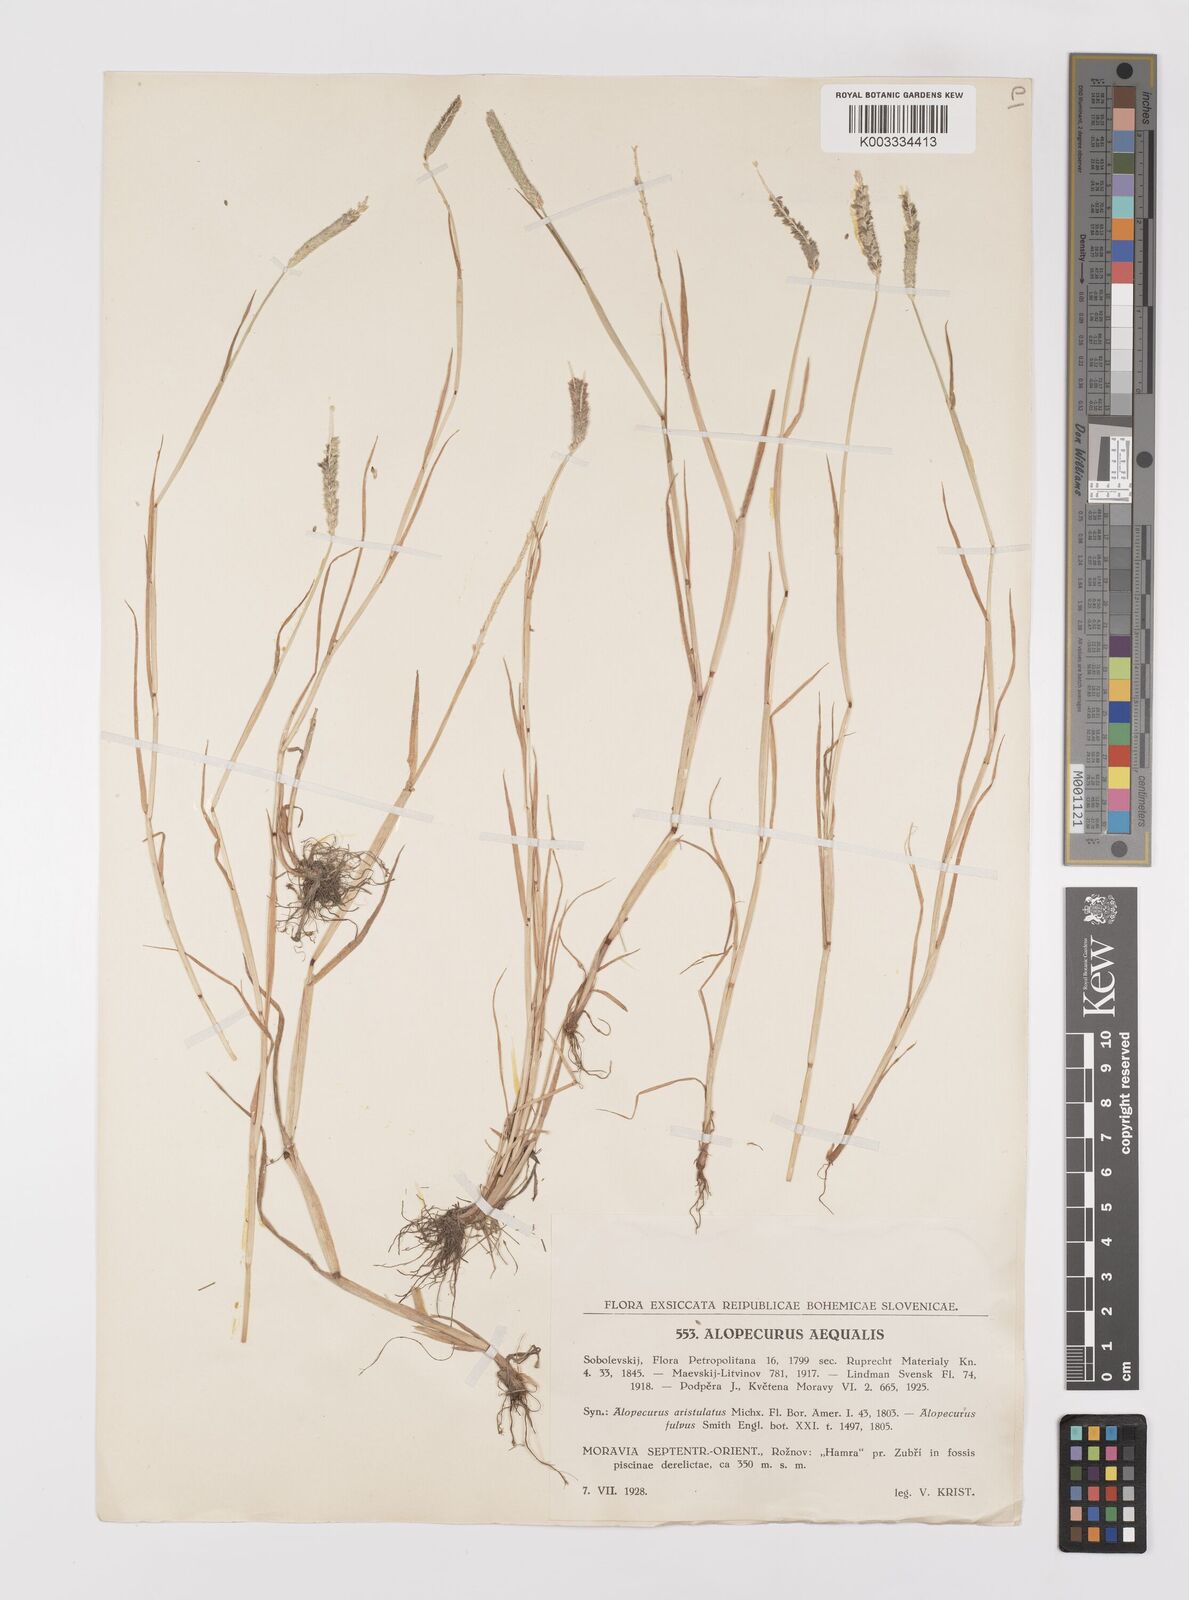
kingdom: Plantae
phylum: Tracheophyta
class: Liliopsida
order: Poales
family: Poaceae
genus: Alopecurus
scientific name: Alopecurus aequalis
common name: Orange foxtail
